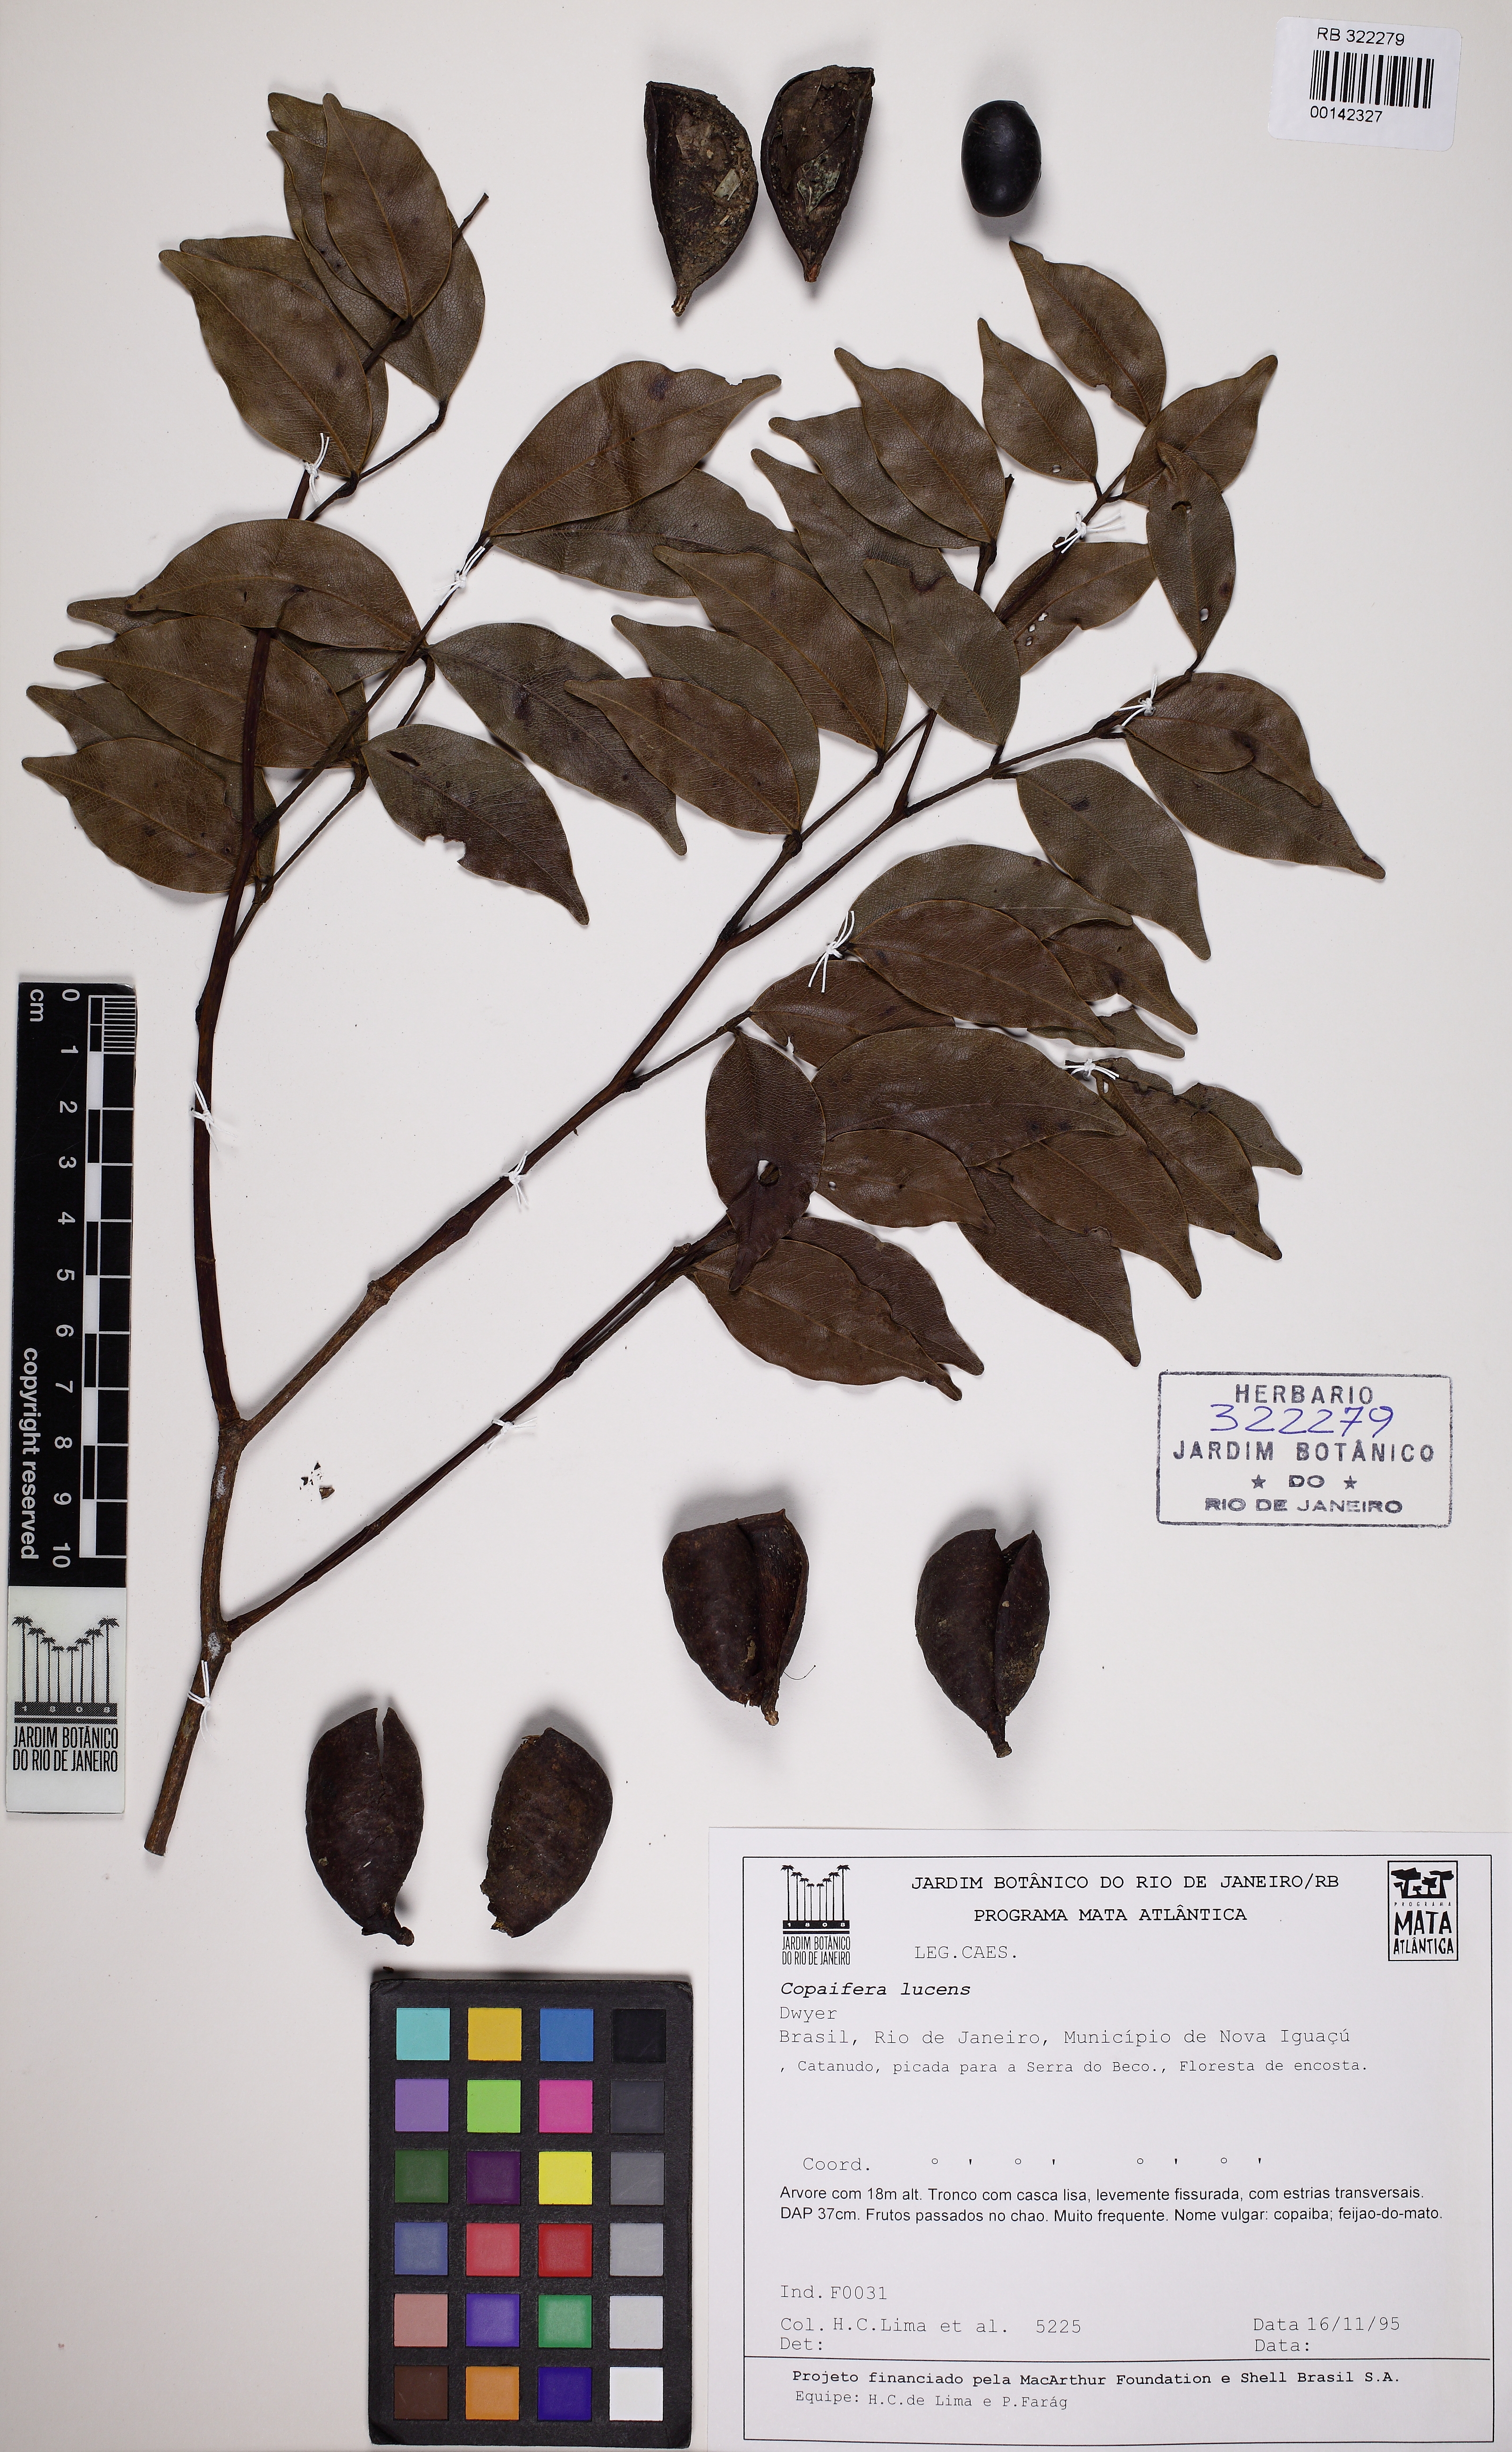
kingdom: Plantae
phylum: Tracheophyta
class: Magnoliopsida
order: Fabales
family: Fabaceae
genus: Copaifera
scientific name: Copaifera lucens
